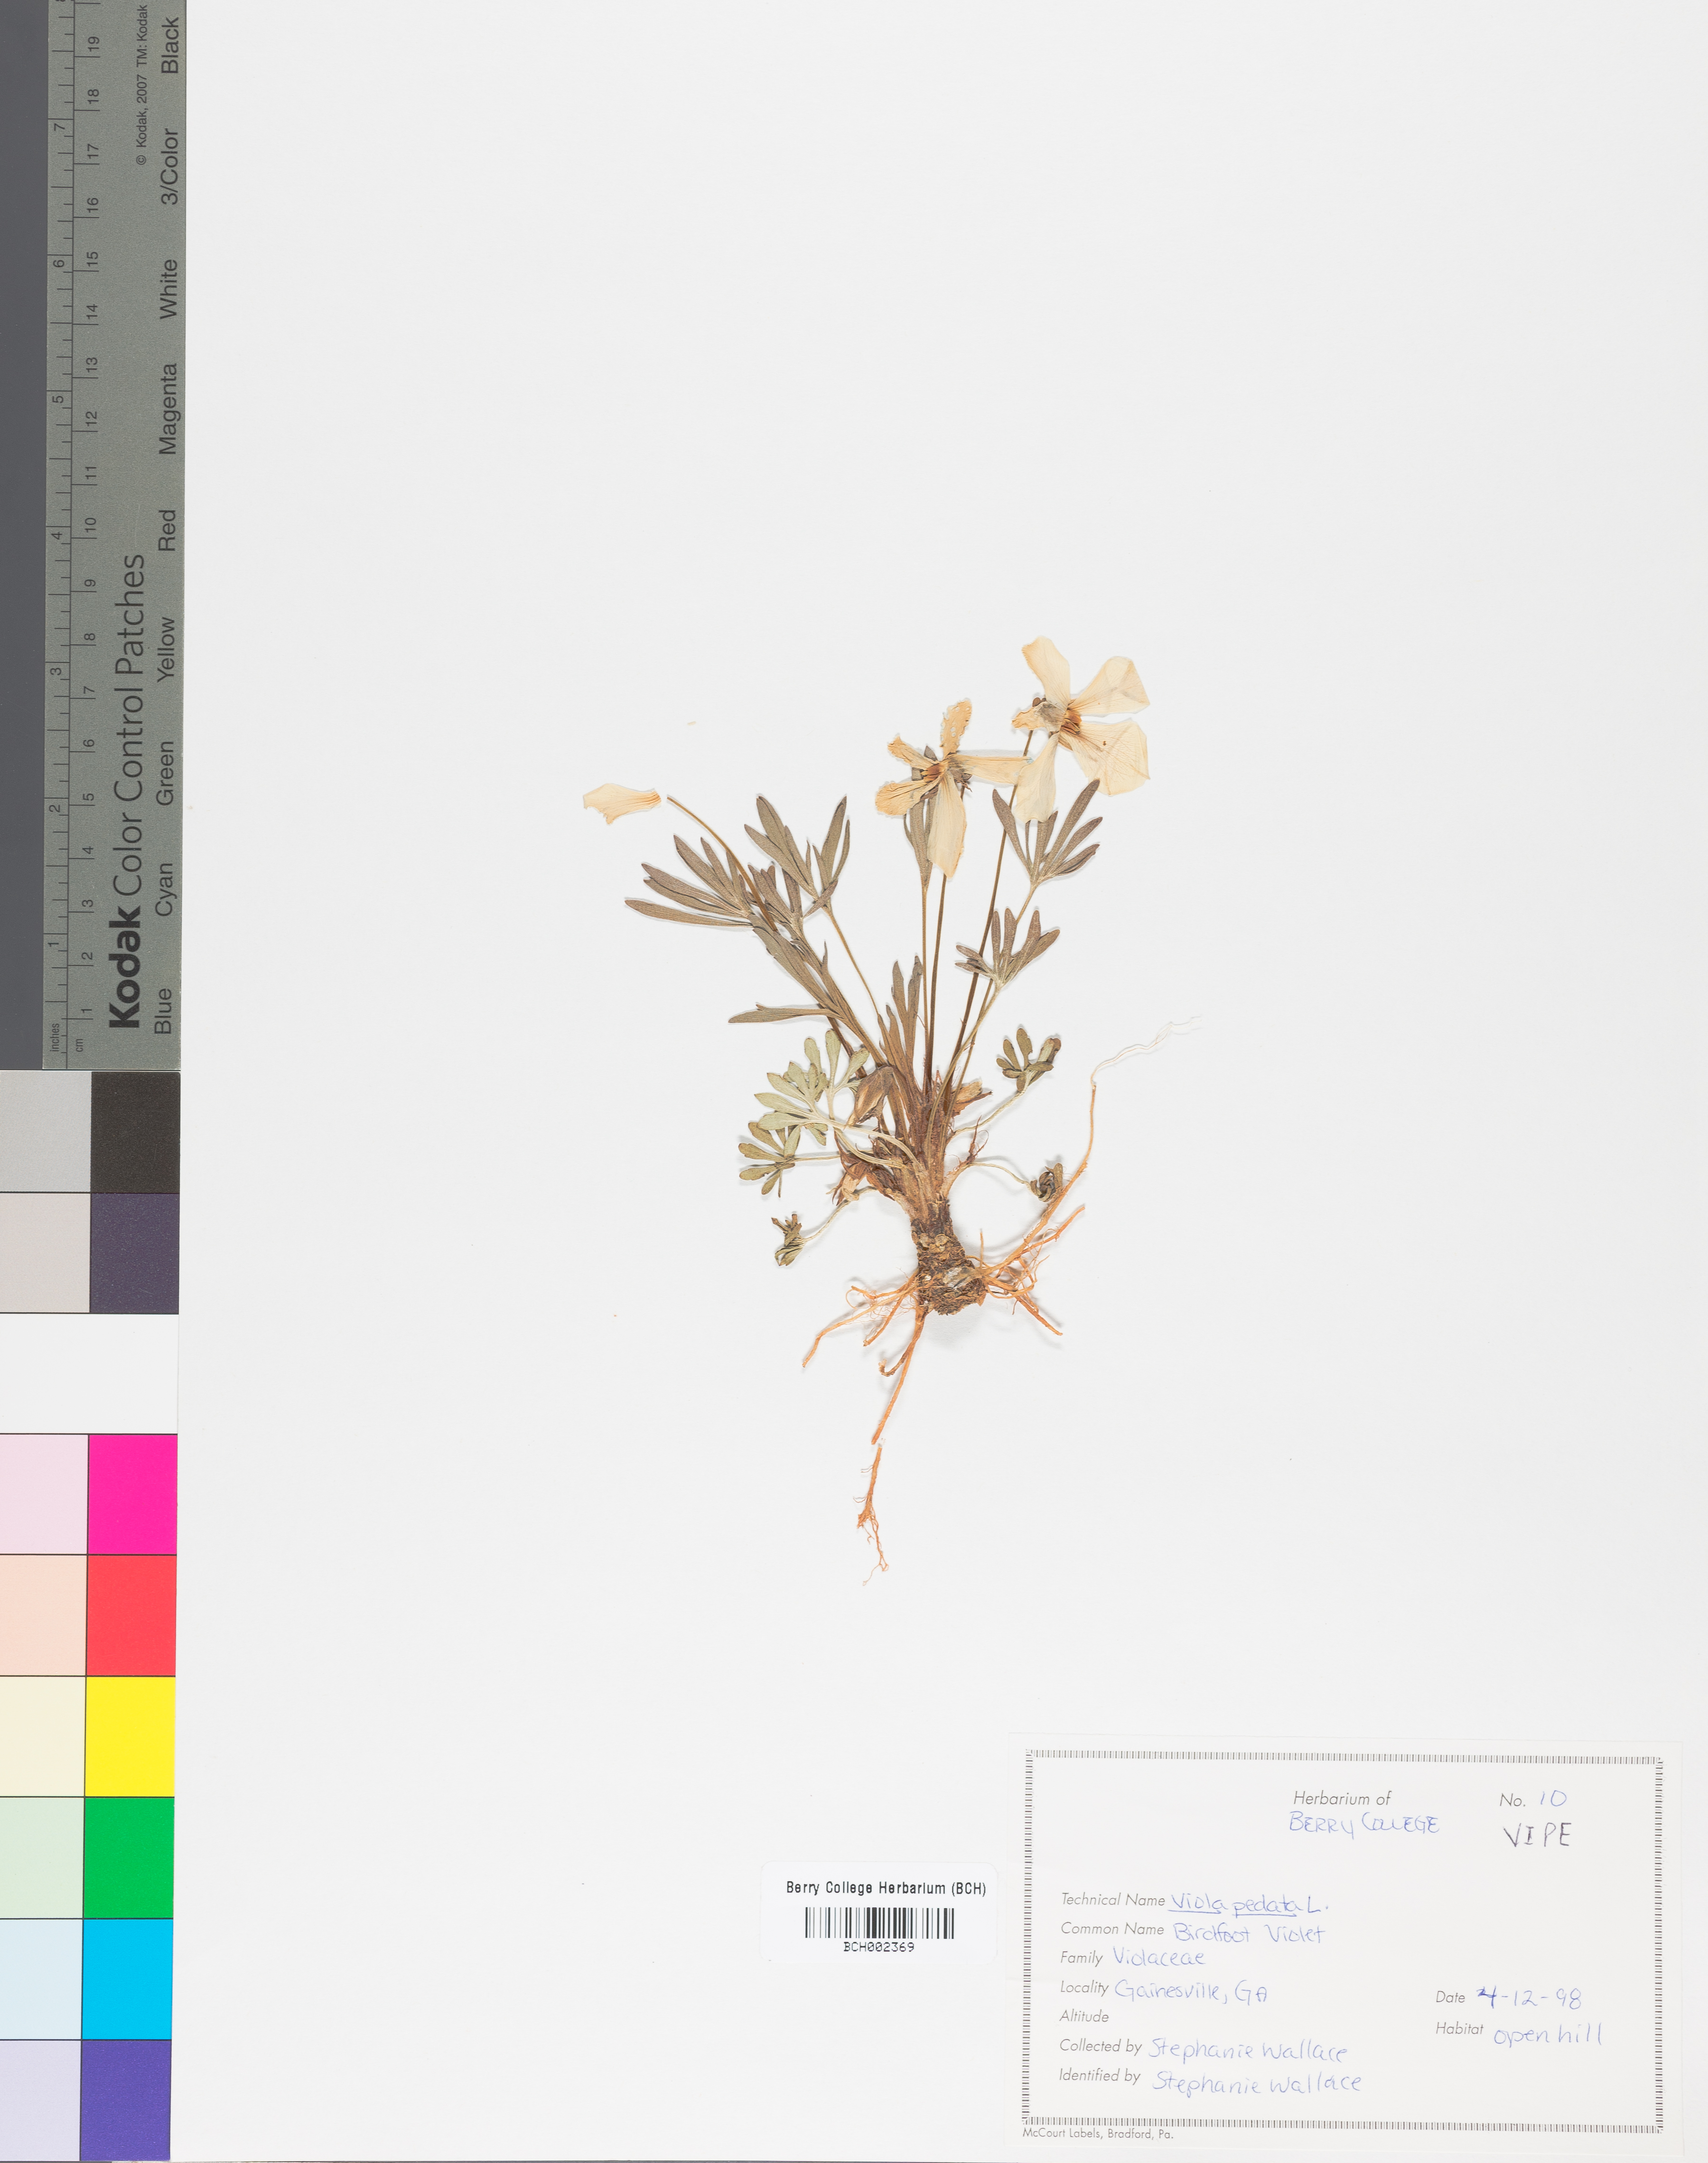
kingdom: Plantae
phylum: Tracheophyta
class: Magnoliopsida
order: Malpighiales
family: Violaceae
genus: Viola
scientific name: Viola pedata
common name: Pansy violet
